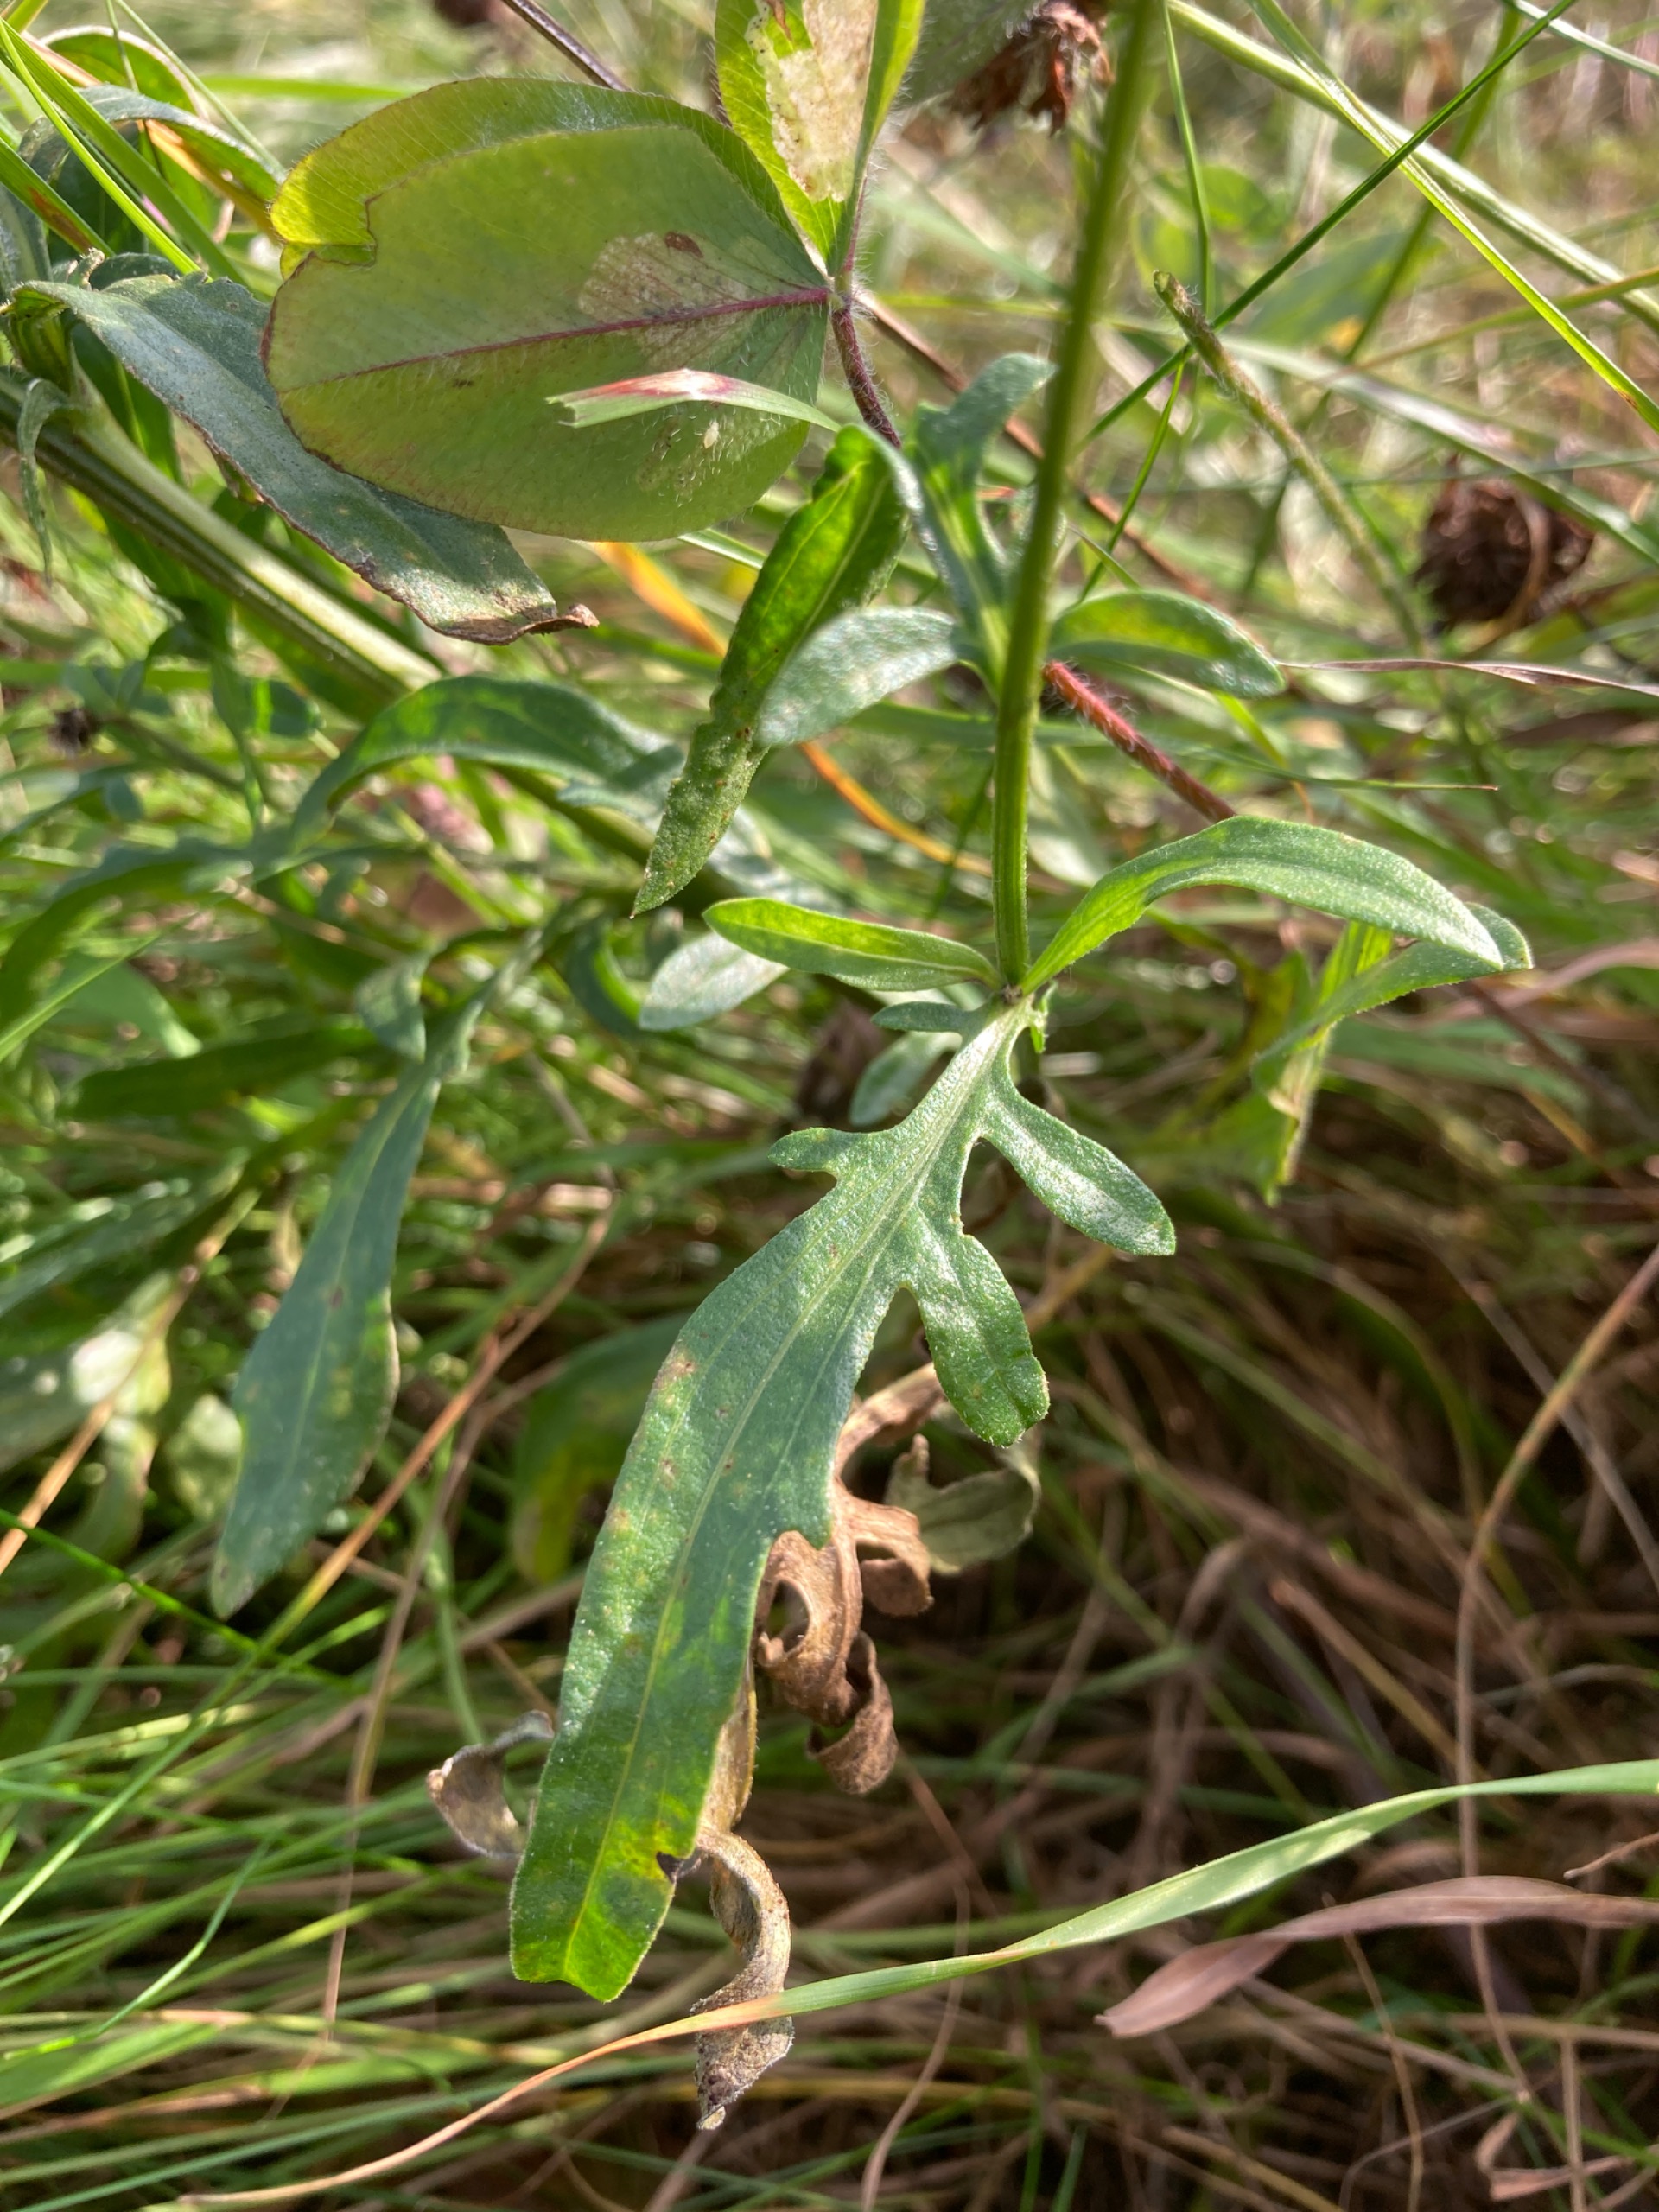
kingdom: Plantae
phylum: Tracheophyta
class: Magnoliopsida
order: Asterales
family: Asteraceae
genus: Centaurea
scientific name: Centaurea scabiosa
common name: Stor knopurt
